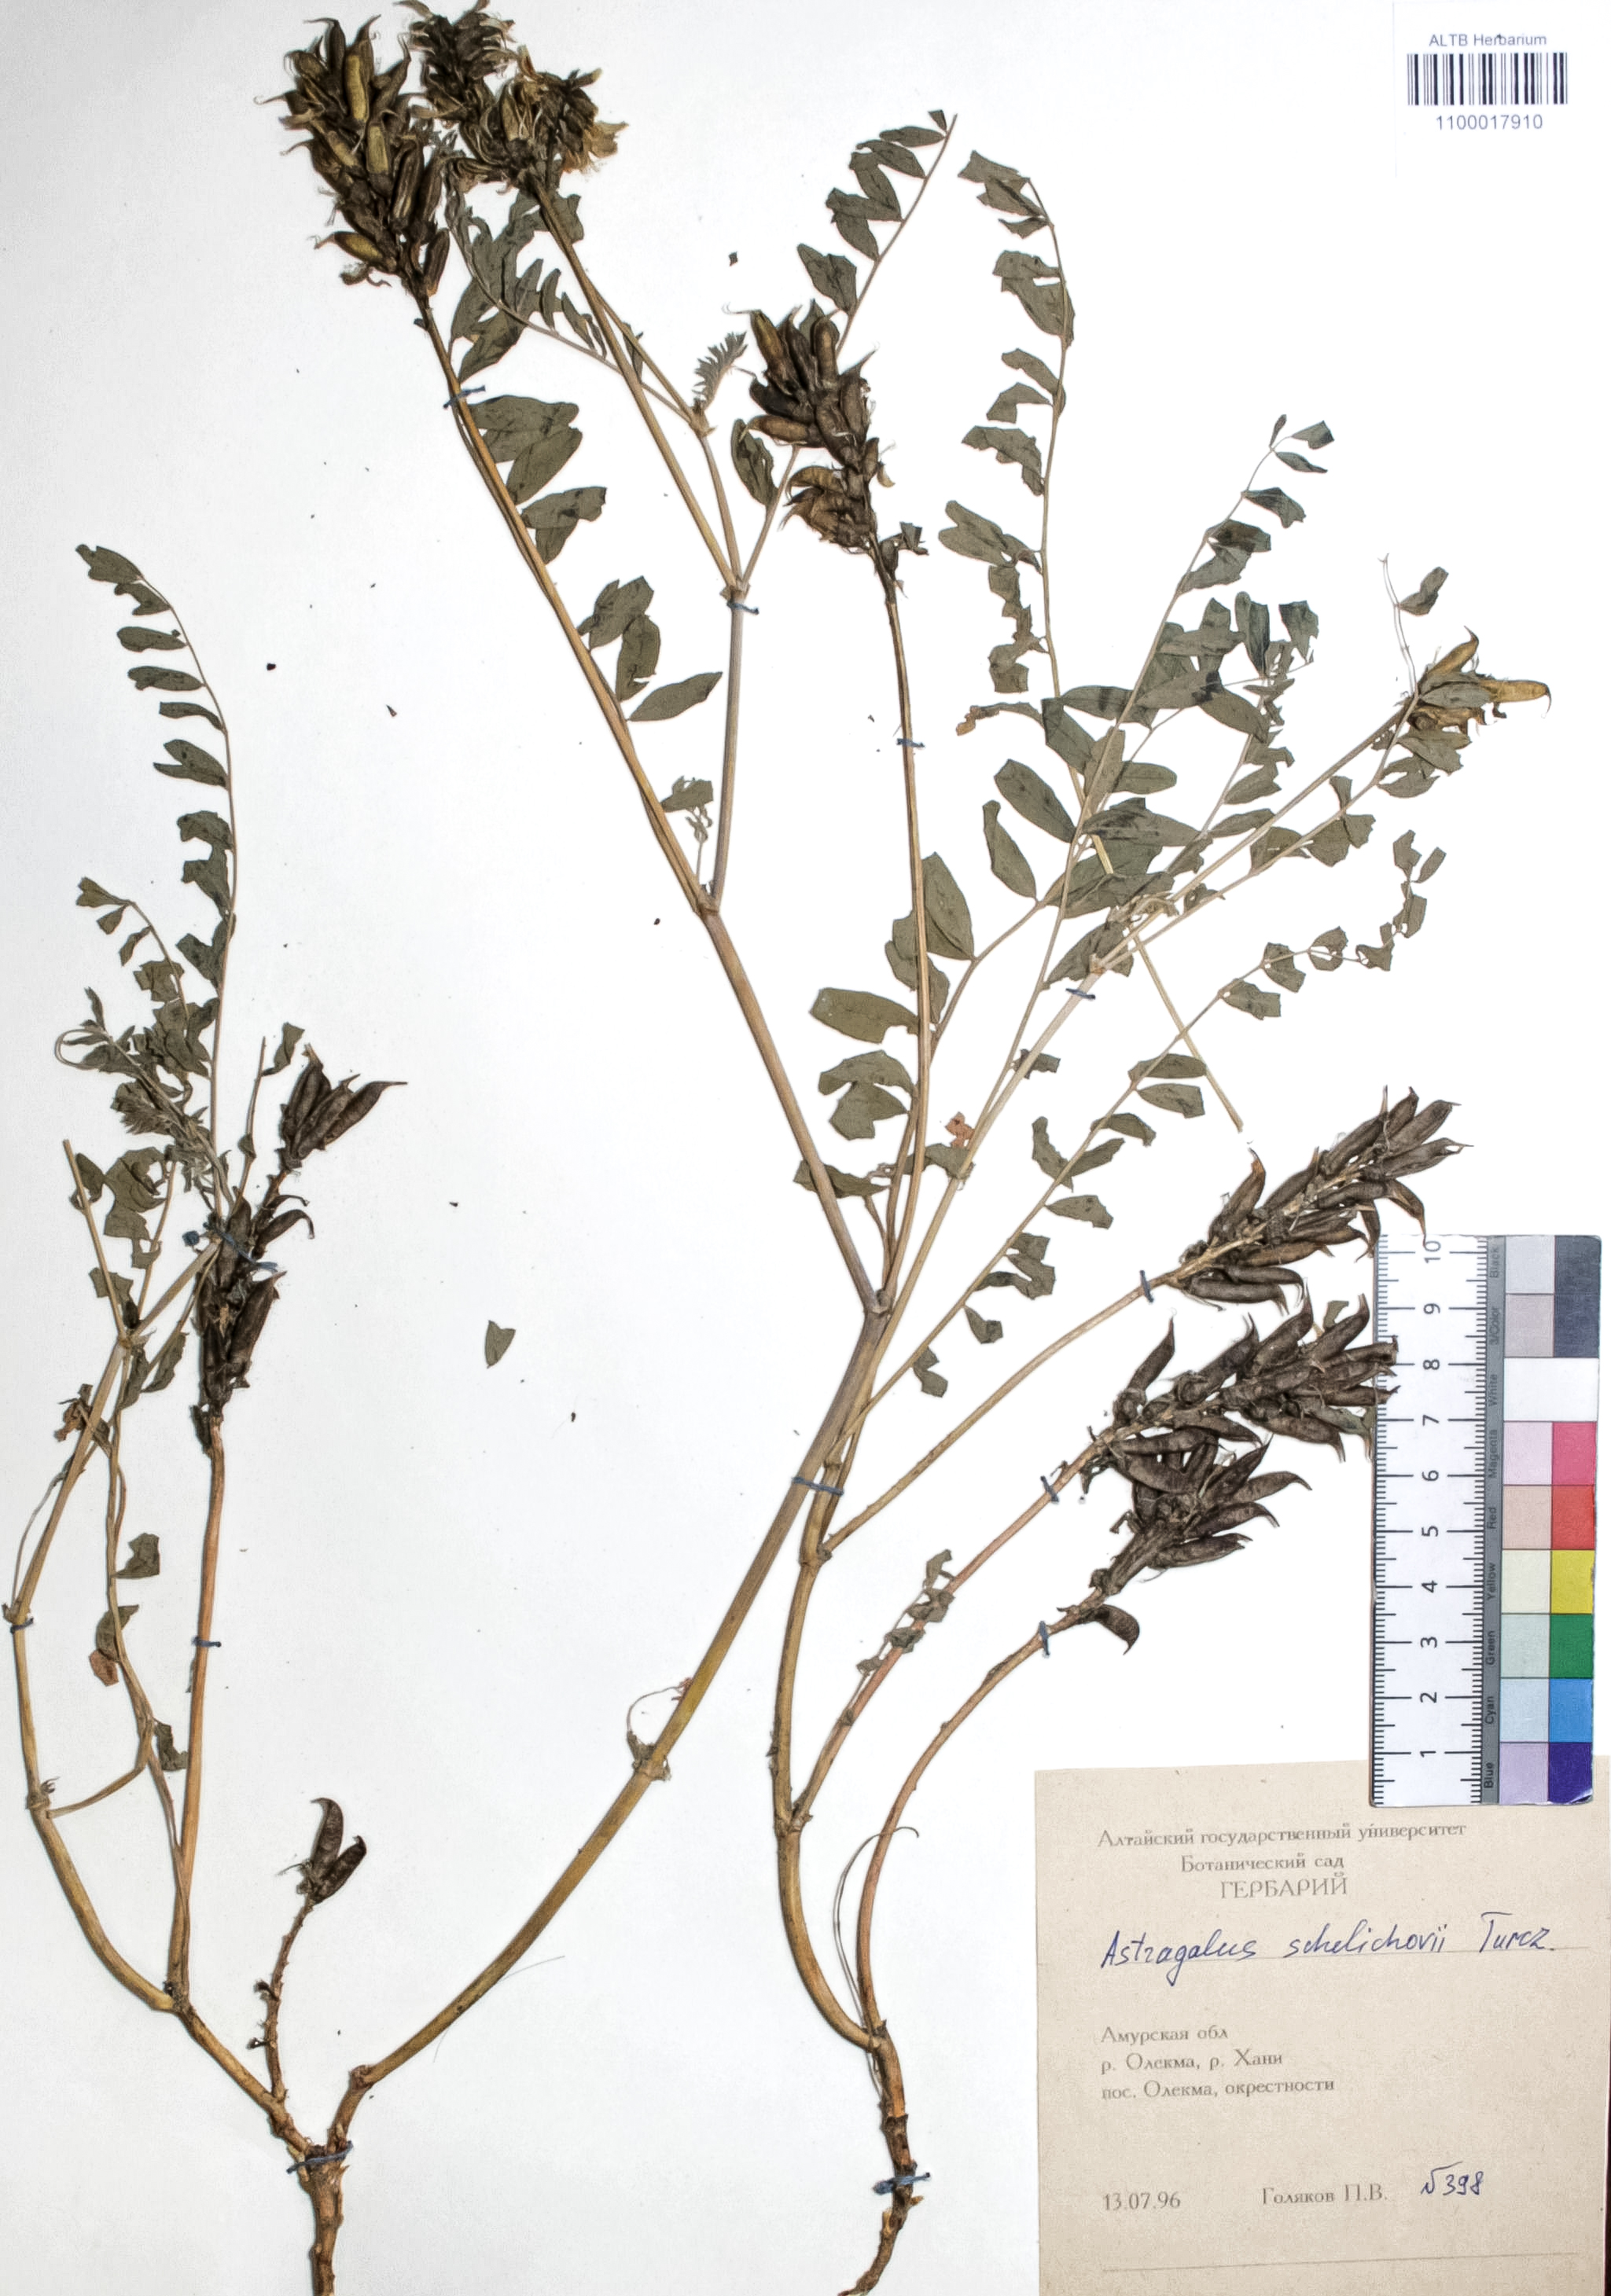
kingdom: Plantae
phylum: Tracheophyta
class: Magnoliopsida
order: Fabales
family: Fabaceae
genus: Astragalus
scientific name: Astragalus schelichowii
